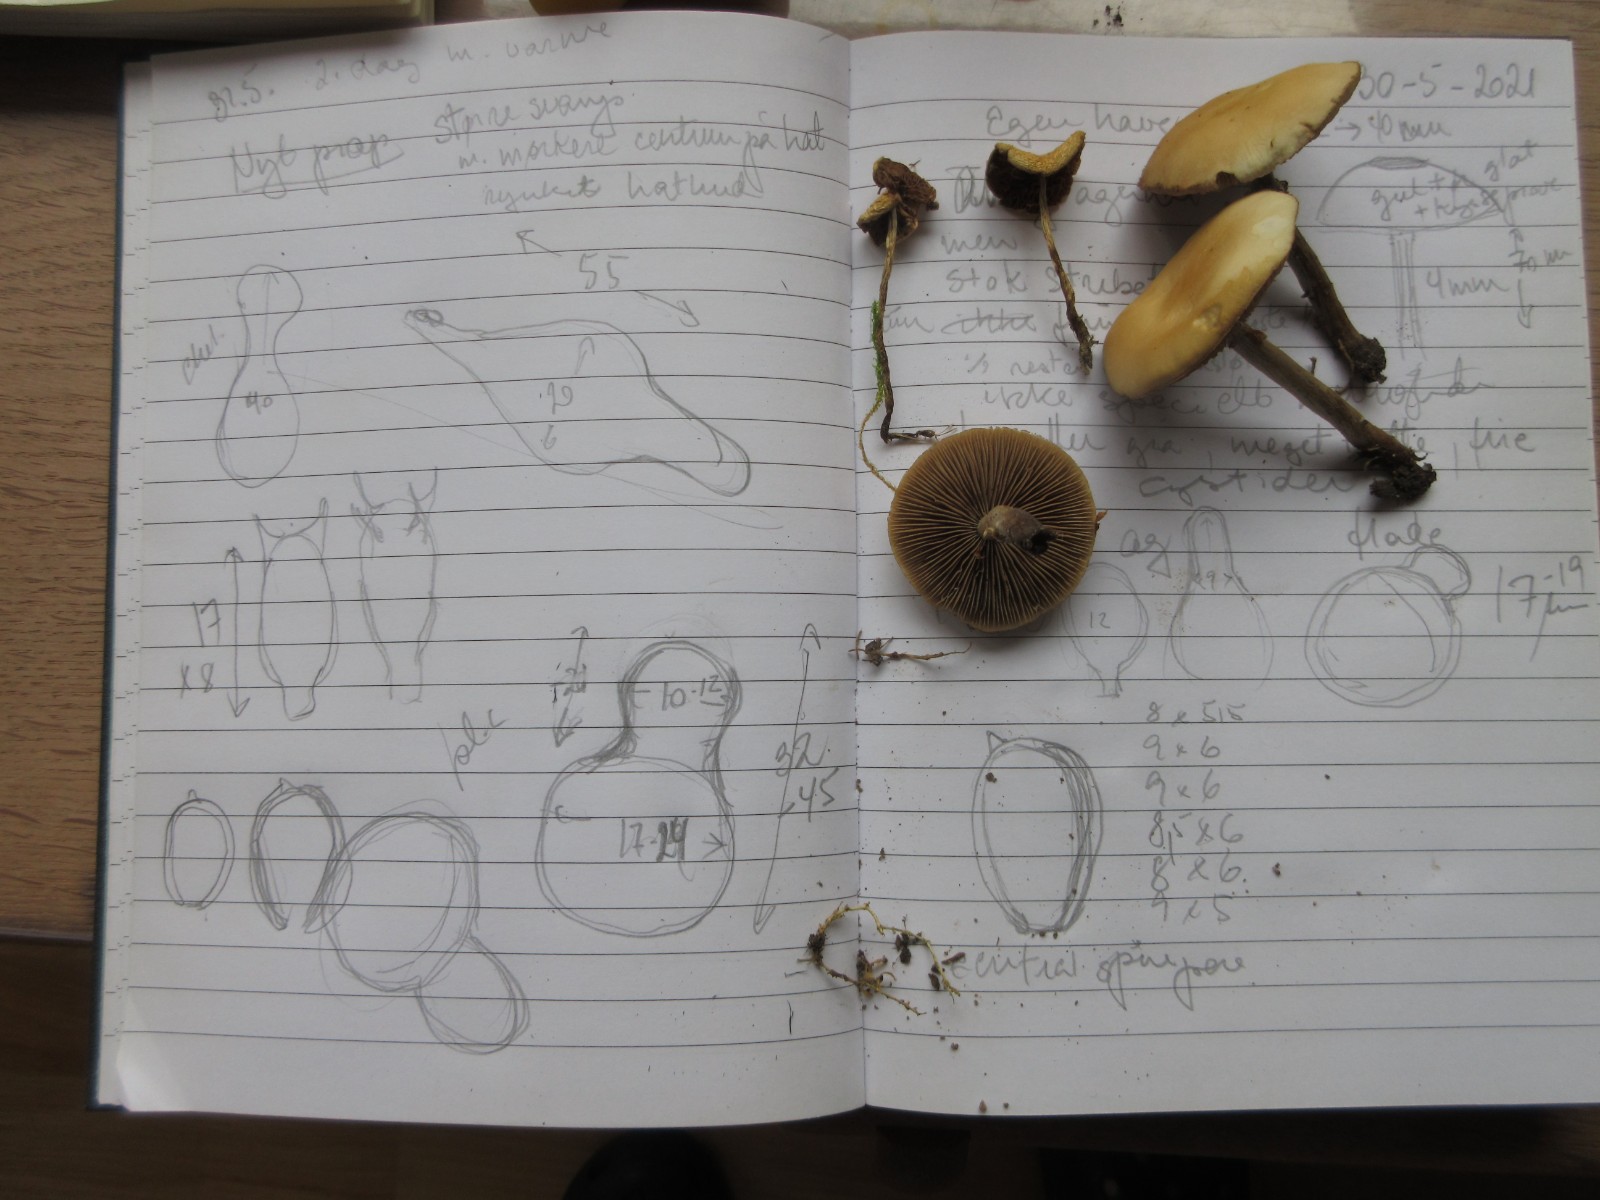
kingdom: Fungi
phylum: Basidiomycota
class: Agaricomycetes
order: Agaricales
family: Strophariaceae
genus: Agrocybe
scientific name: Agrocybe pediades
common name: almindelig agerhat
